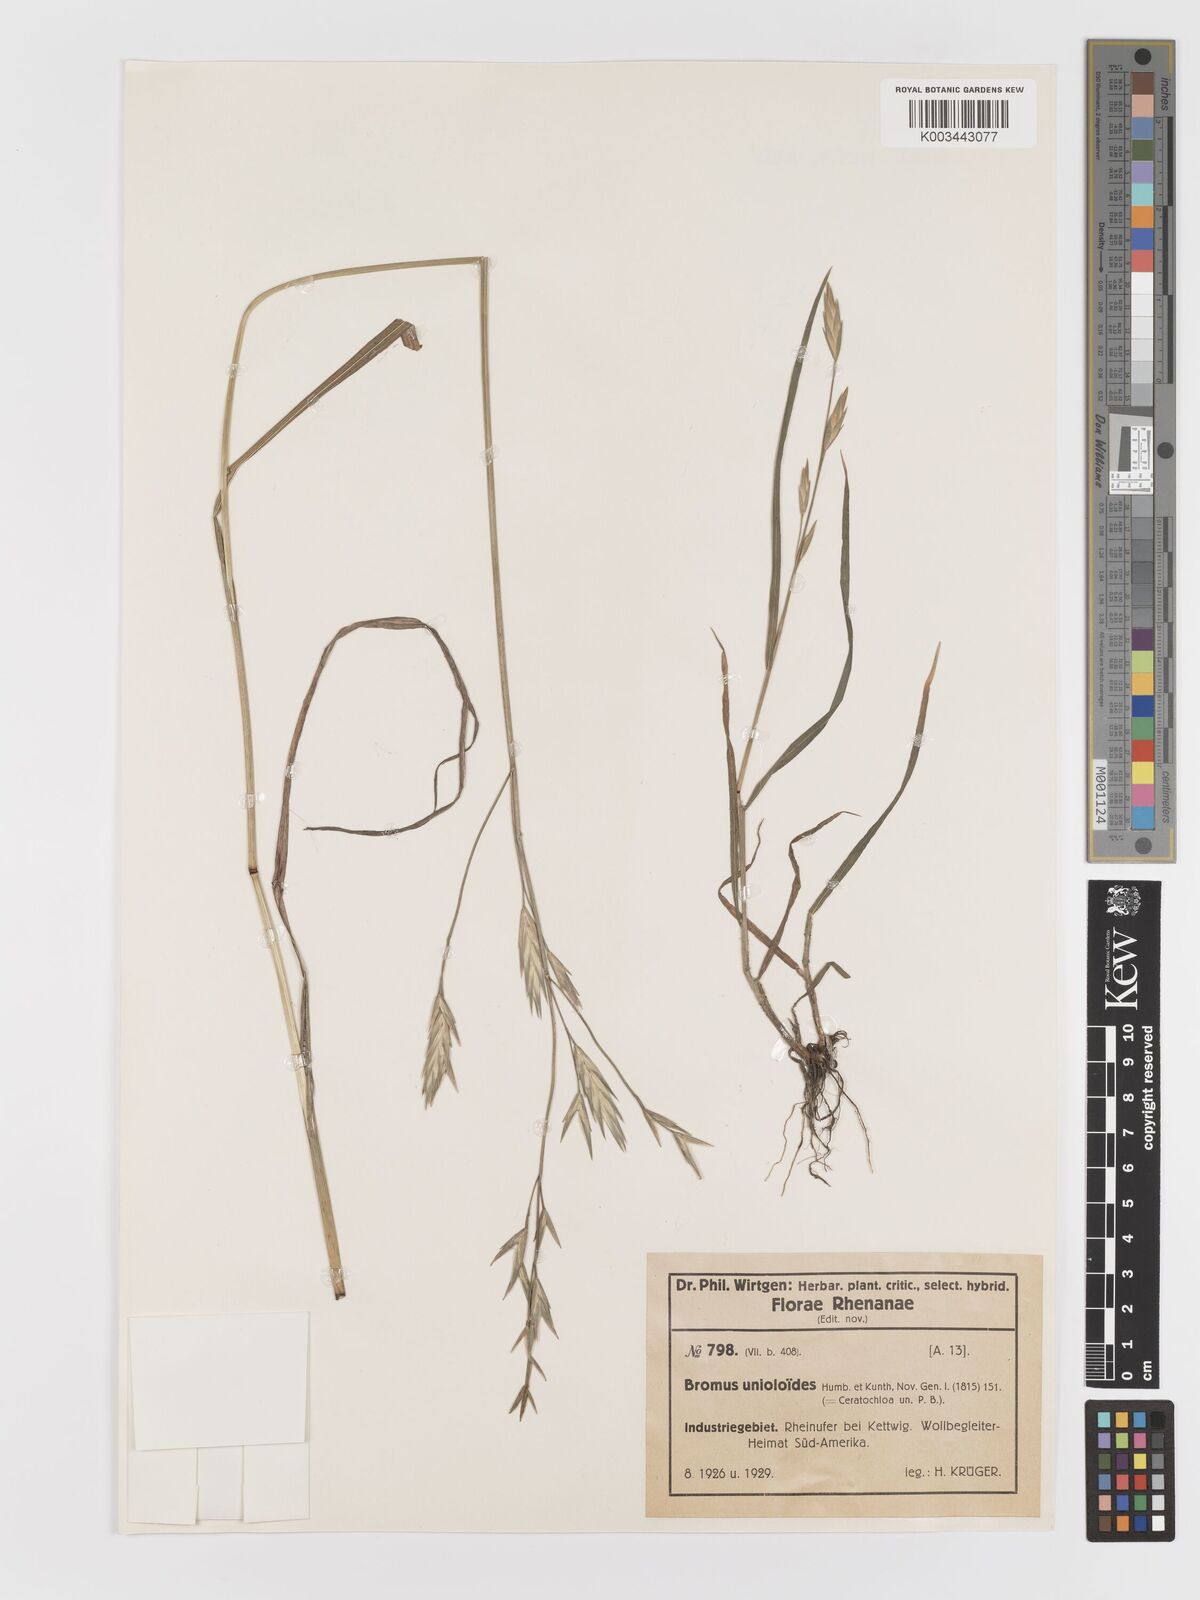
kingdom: Plantae
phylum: Tracheophyta
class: Liliopsida
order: Poales
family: Poaceae
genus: Bromus
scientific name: Bromus catharticus
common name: Rescuegrass
